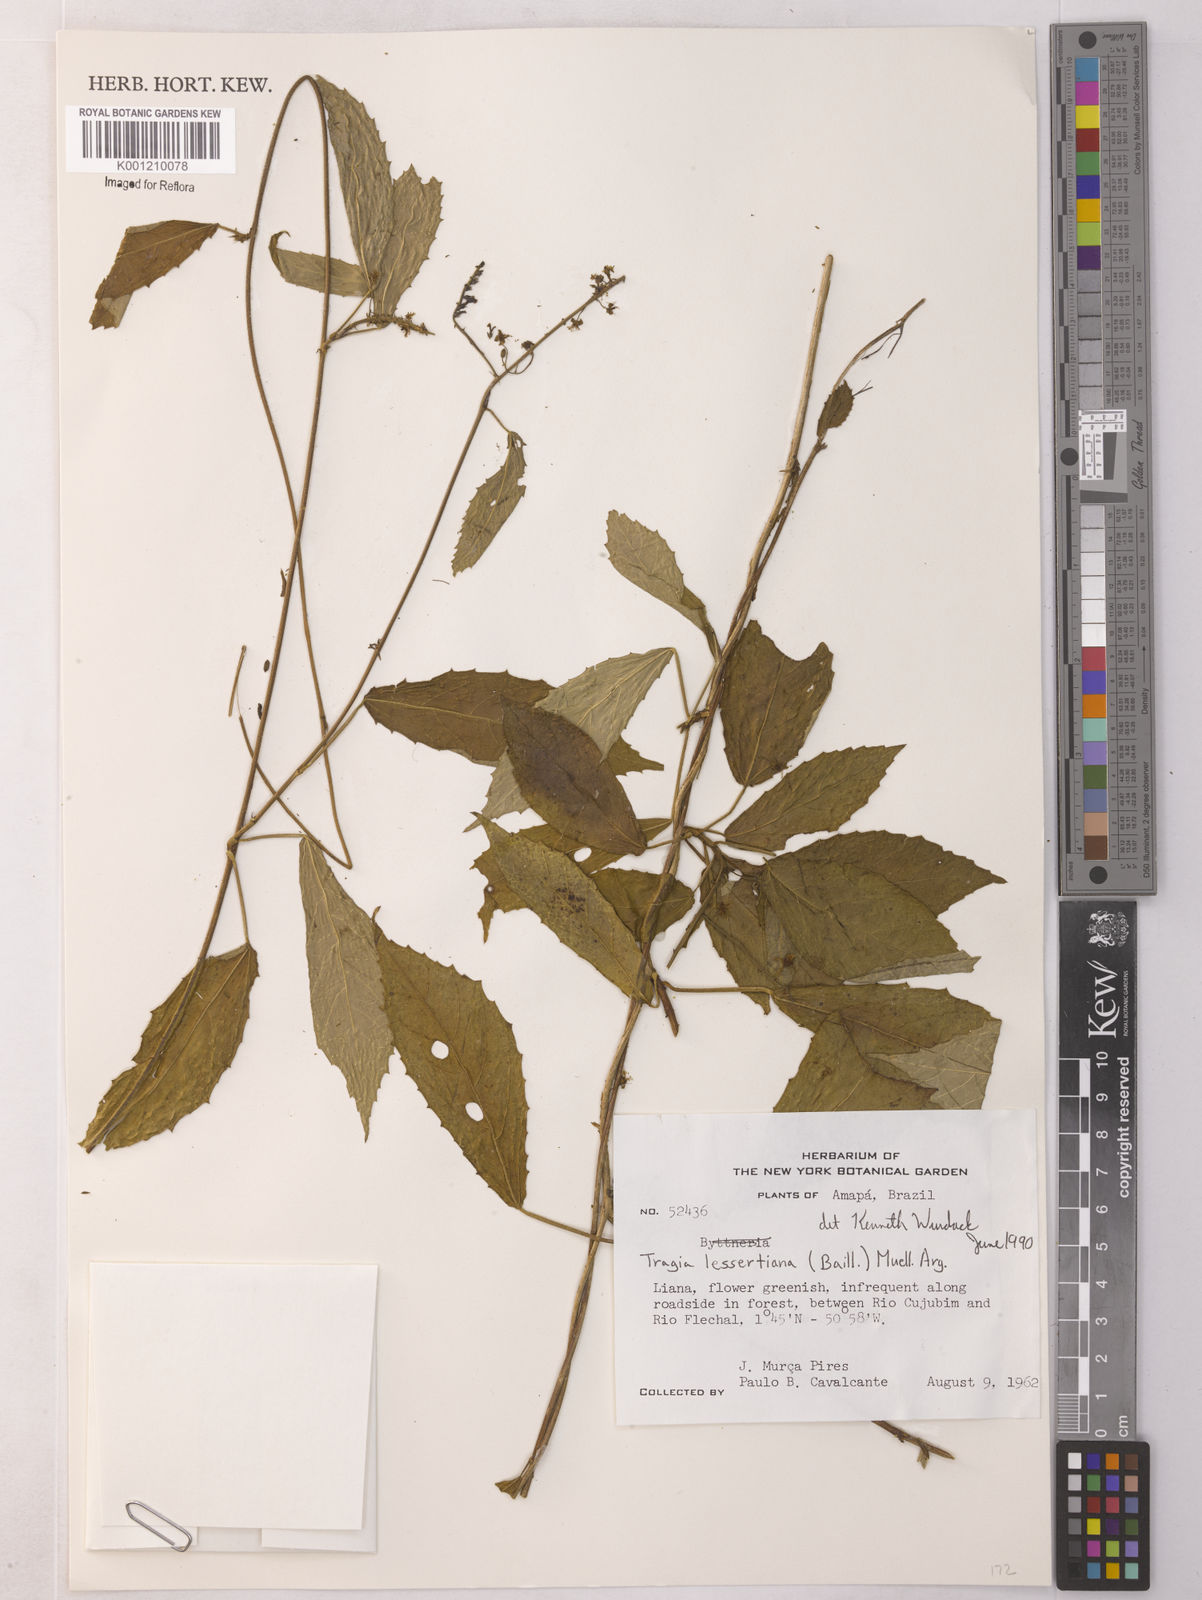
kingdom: Plantae
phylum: Tracheophyta
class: Magnoliopsida
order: Malpighiales
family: Euphorbiaceae
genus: Bia
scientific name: Bia lessertiana
